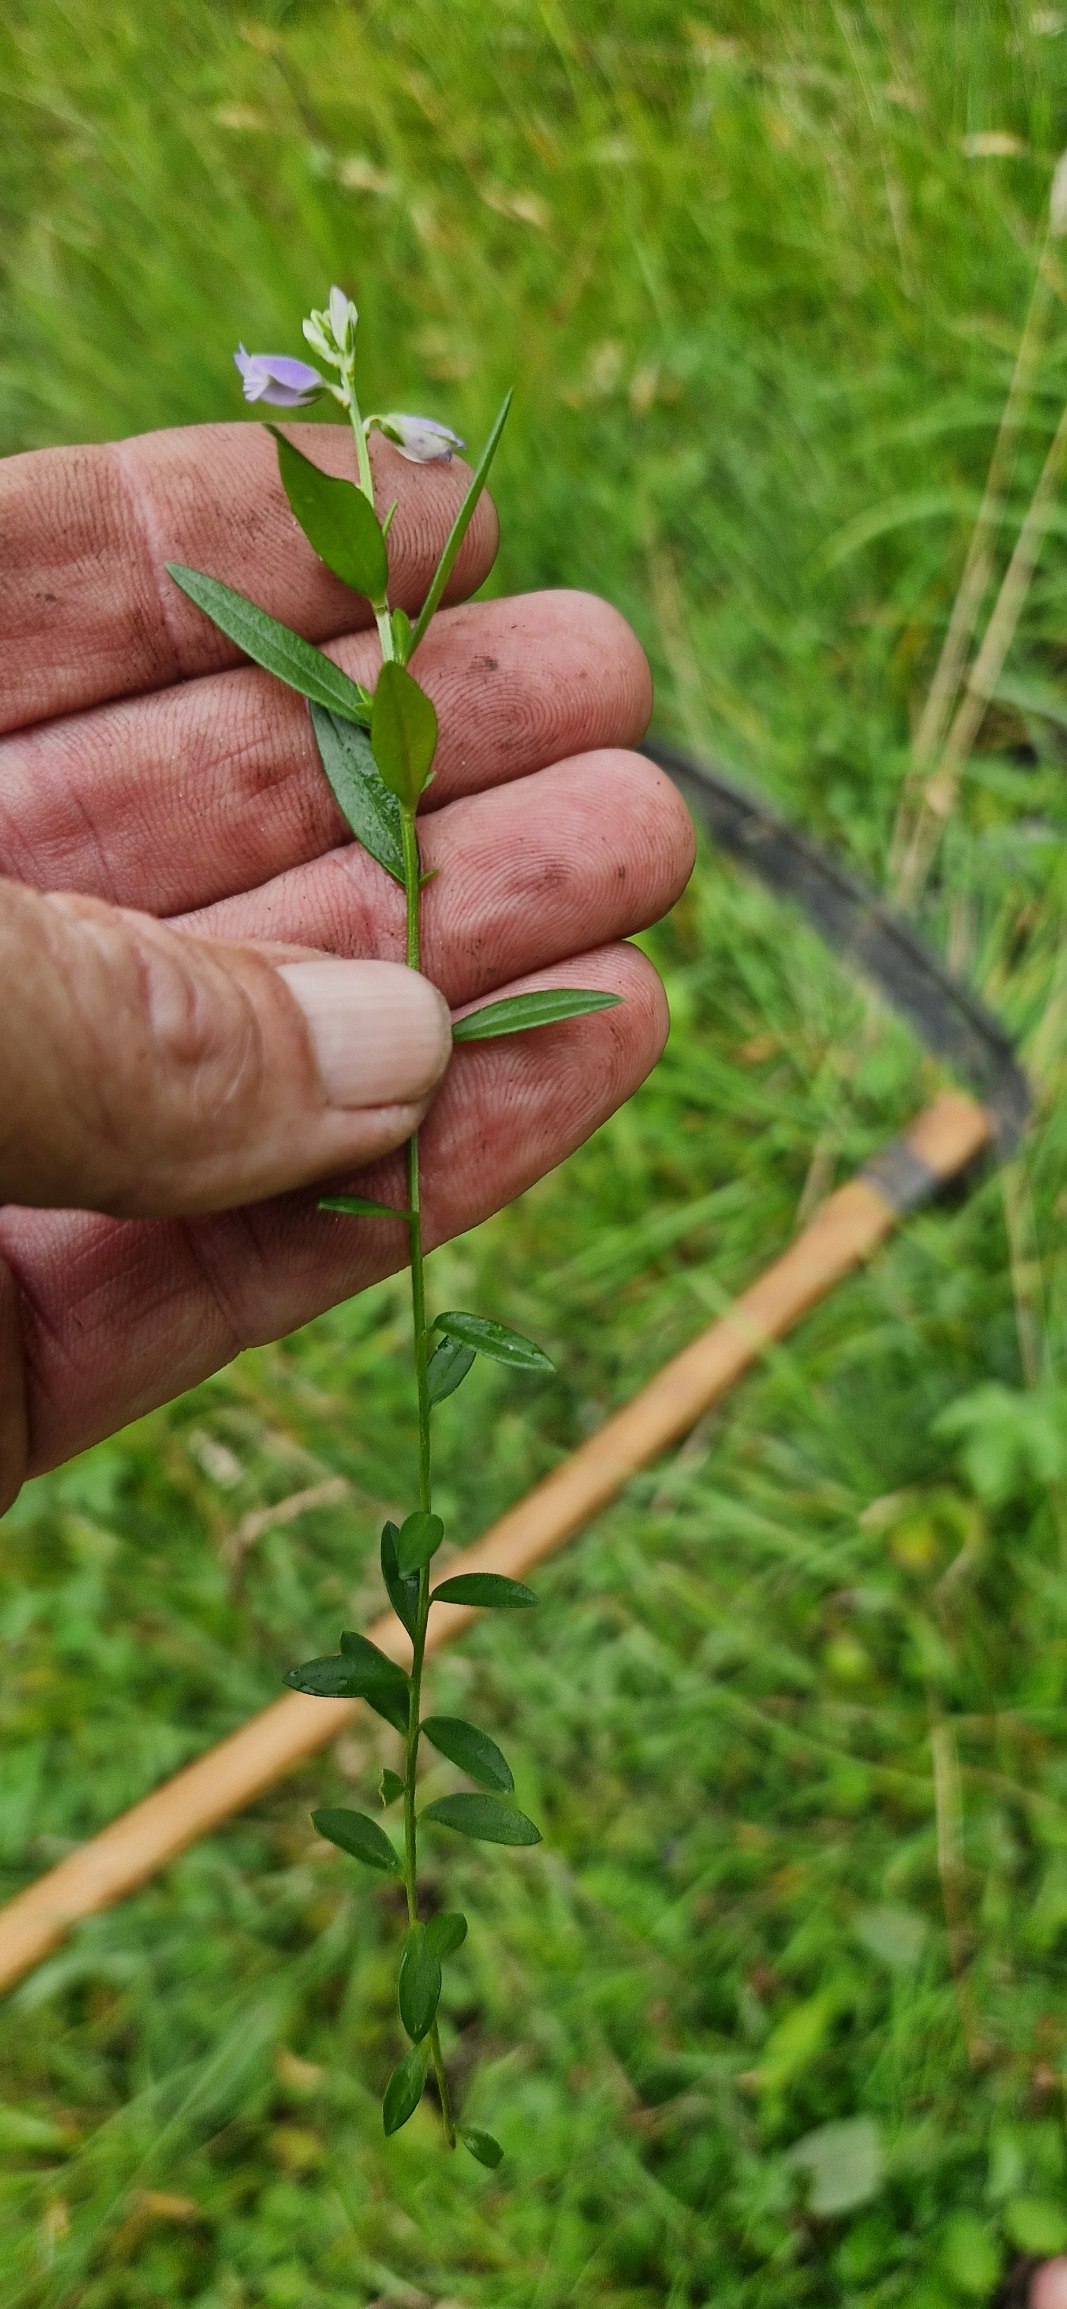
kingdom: Plantae
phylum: Tracheophyta
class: Magnoliopsida
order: Fabales
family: Polygalaceae
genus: Polygala
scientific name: Polygala vulgaris
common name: Almindelig mælkeurt
